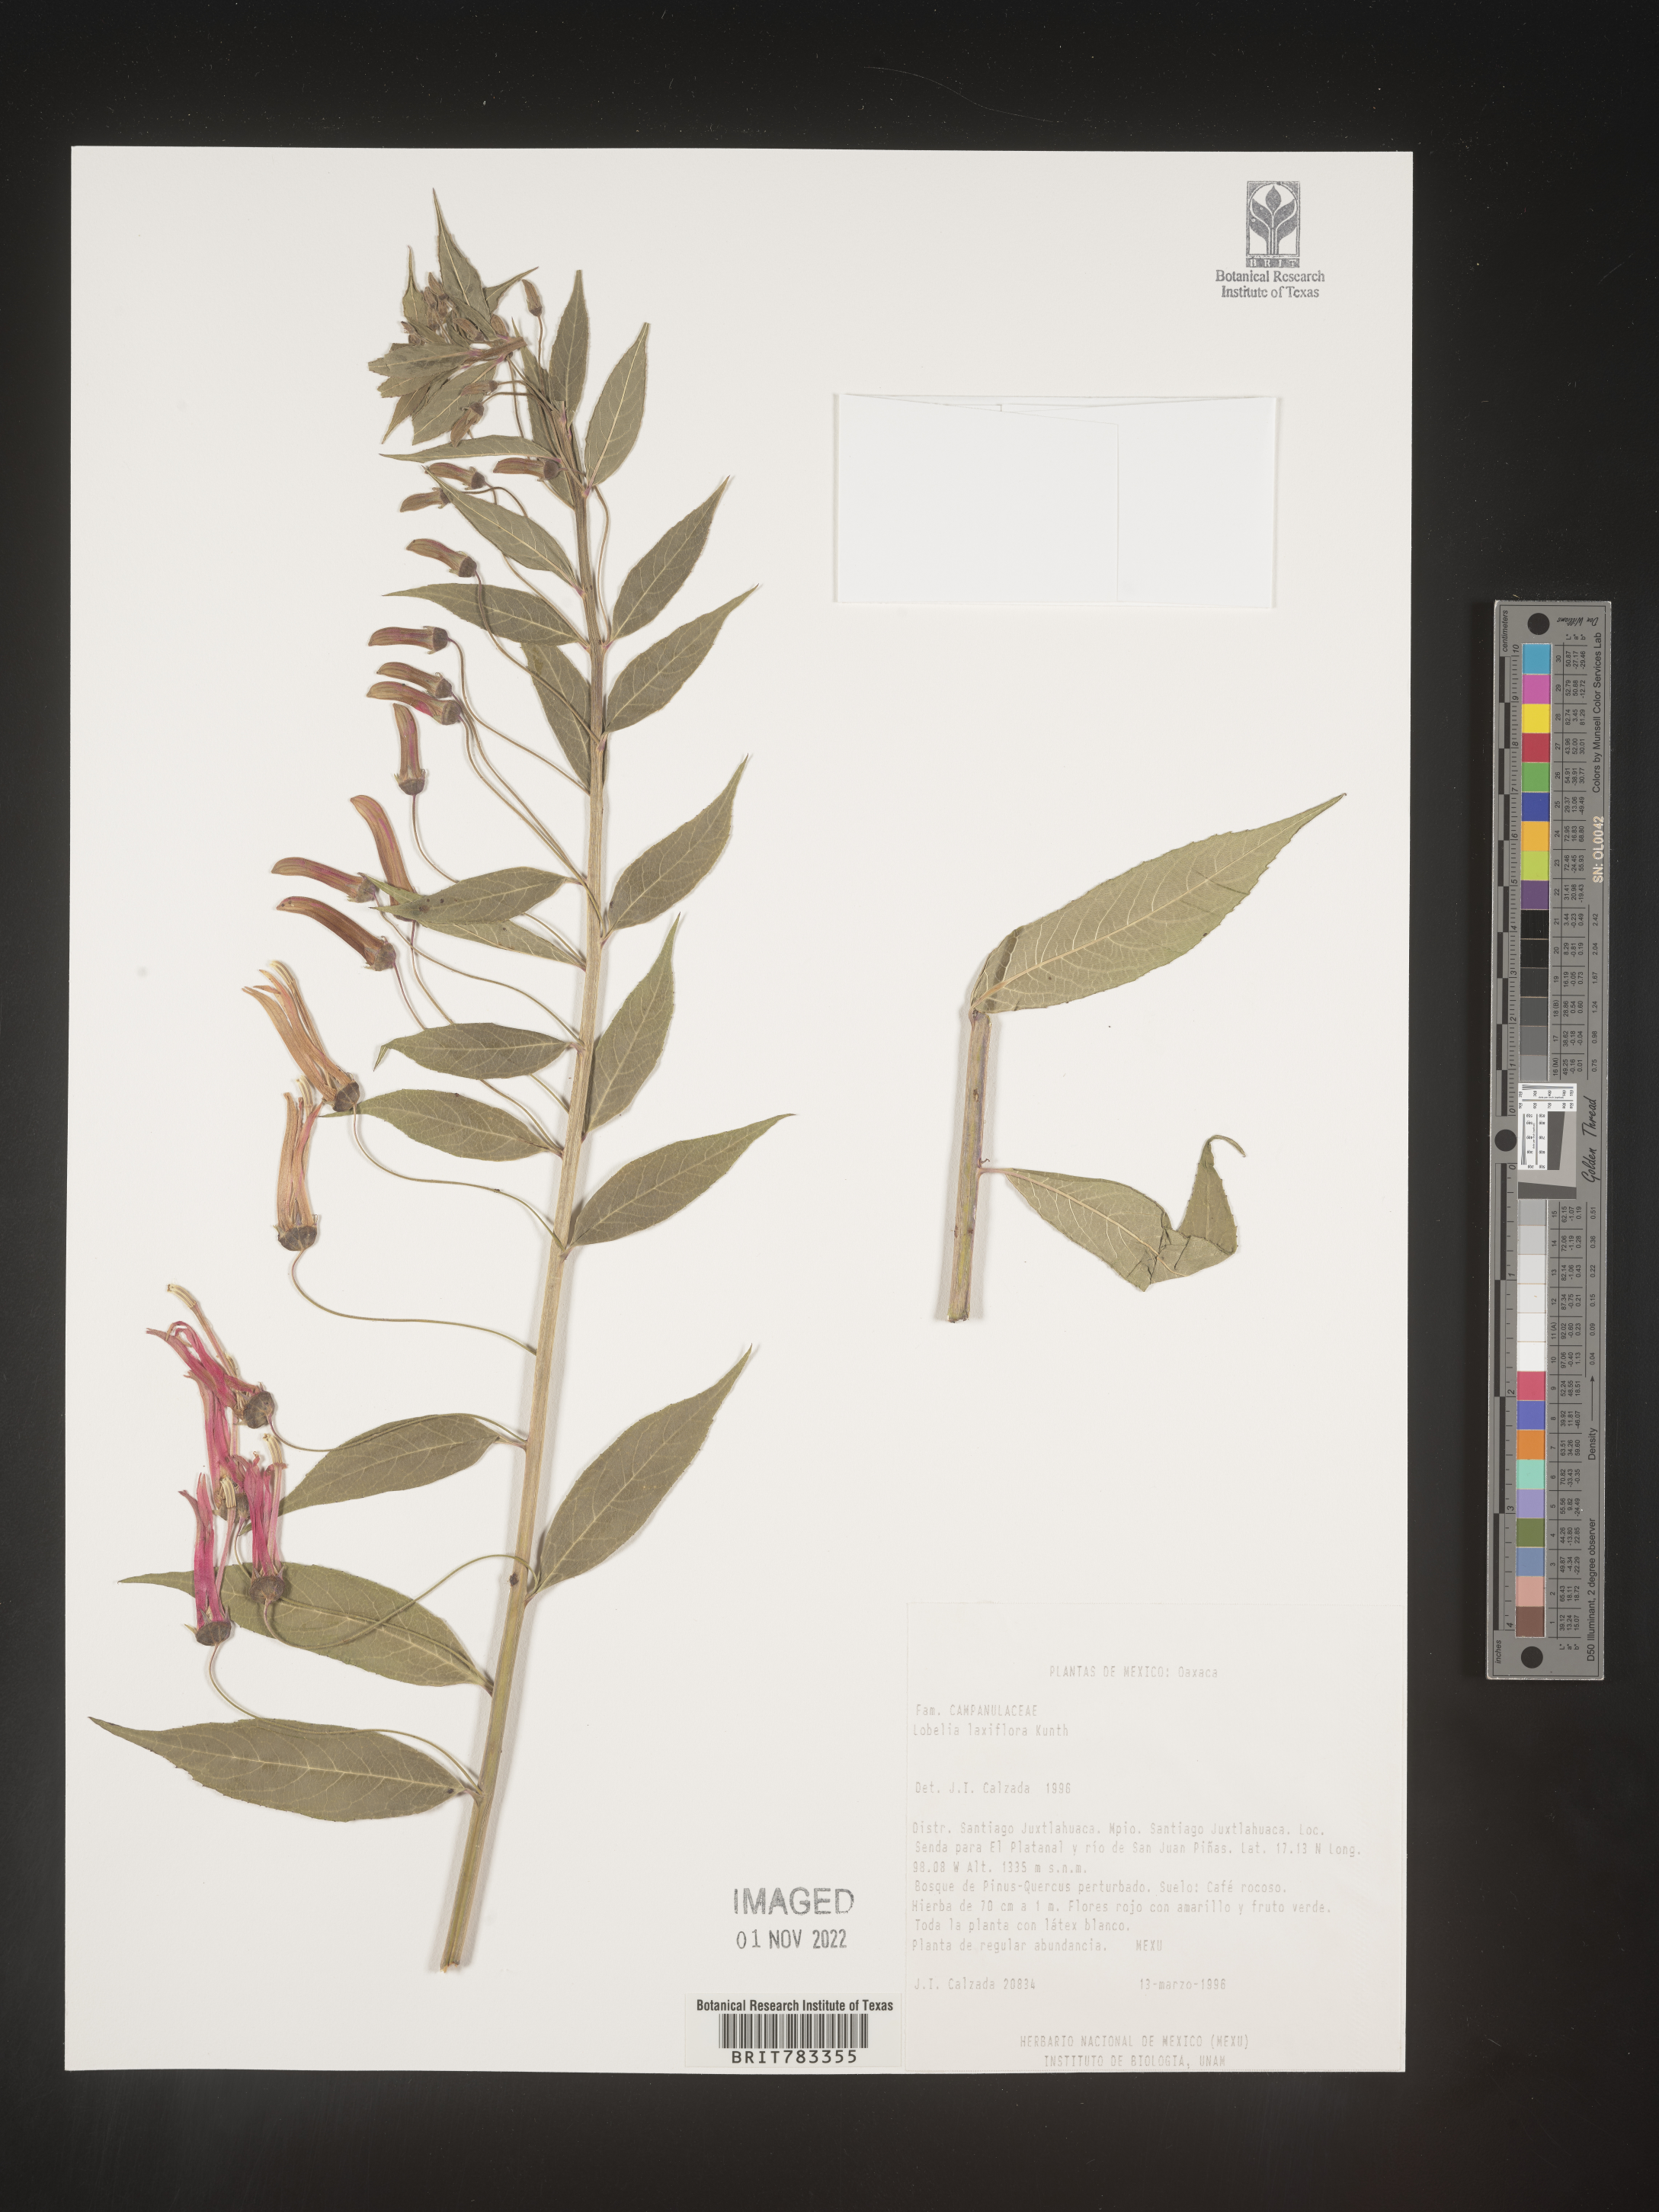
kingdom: Plantae
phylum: Tracheophyta
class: Magnoliopsida
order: Asterales
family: Campanulaceae
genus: Lobelia
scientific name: Lobelia
